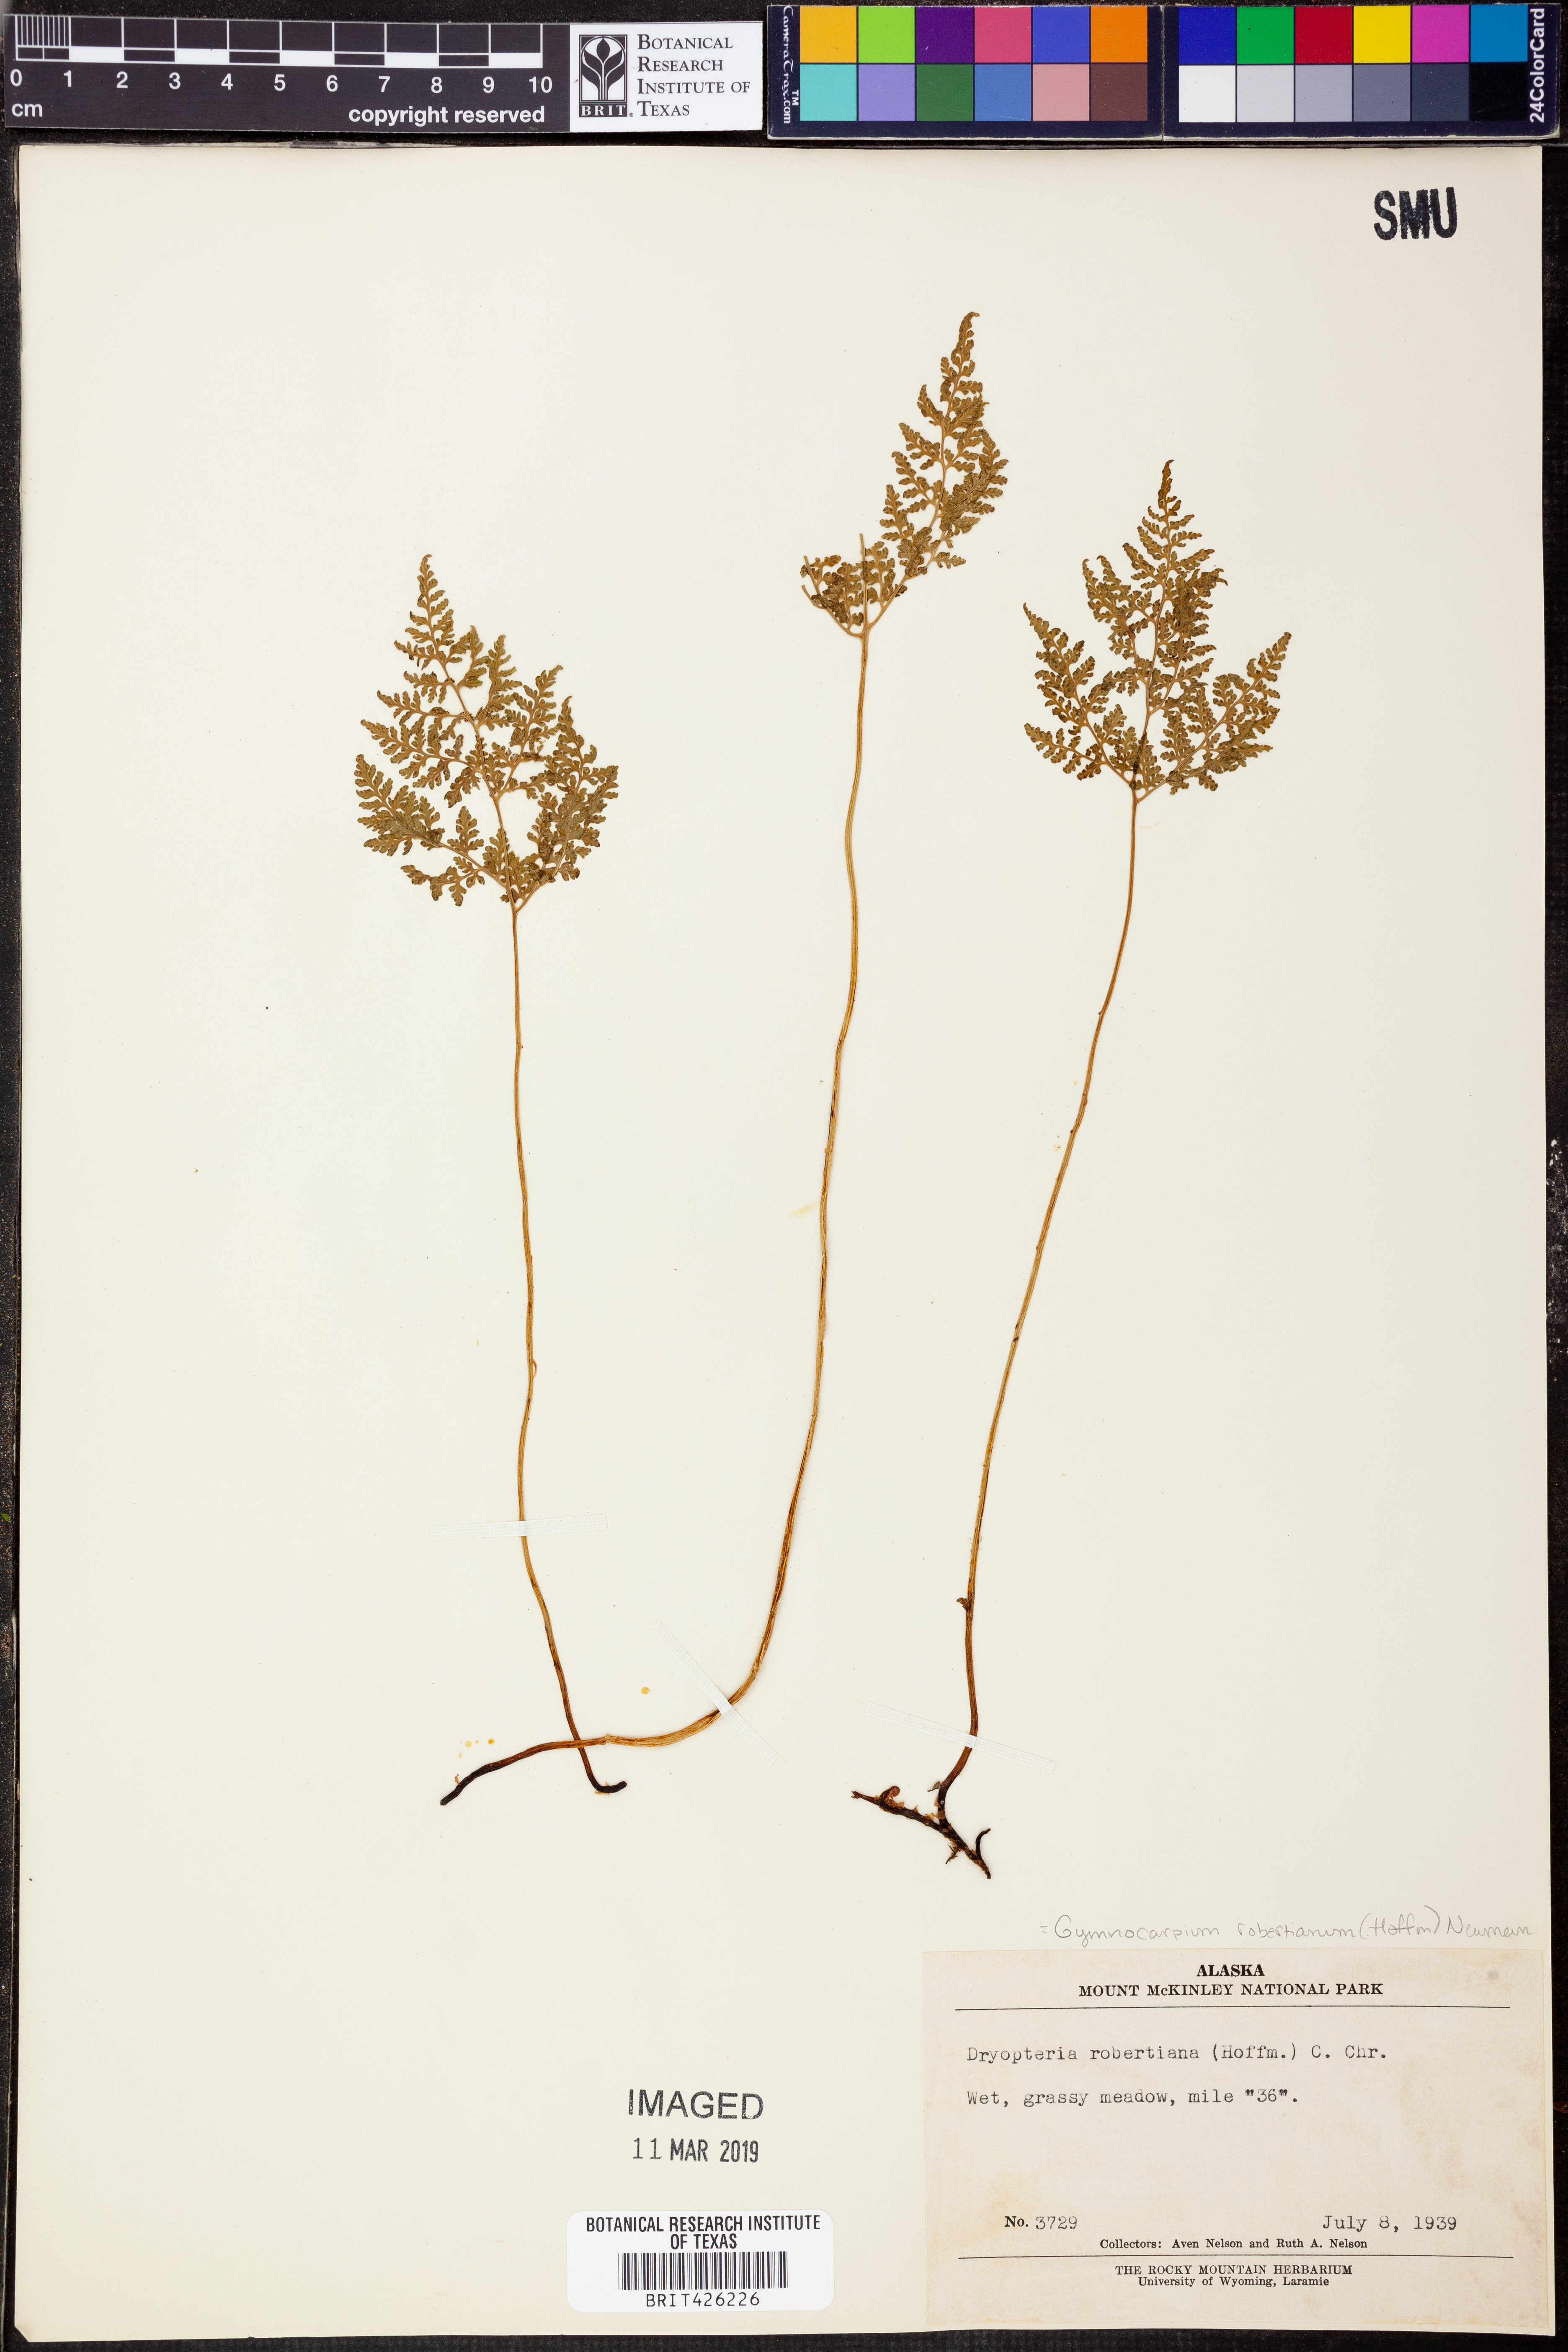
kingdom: Plantae
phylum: Tracheophyta
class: Polypodiopsida
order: Polypodiales
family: Cystopteridaceae
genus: Gymnocarpium
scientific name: Gymnocarpium robertianum
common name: Limestone fern
